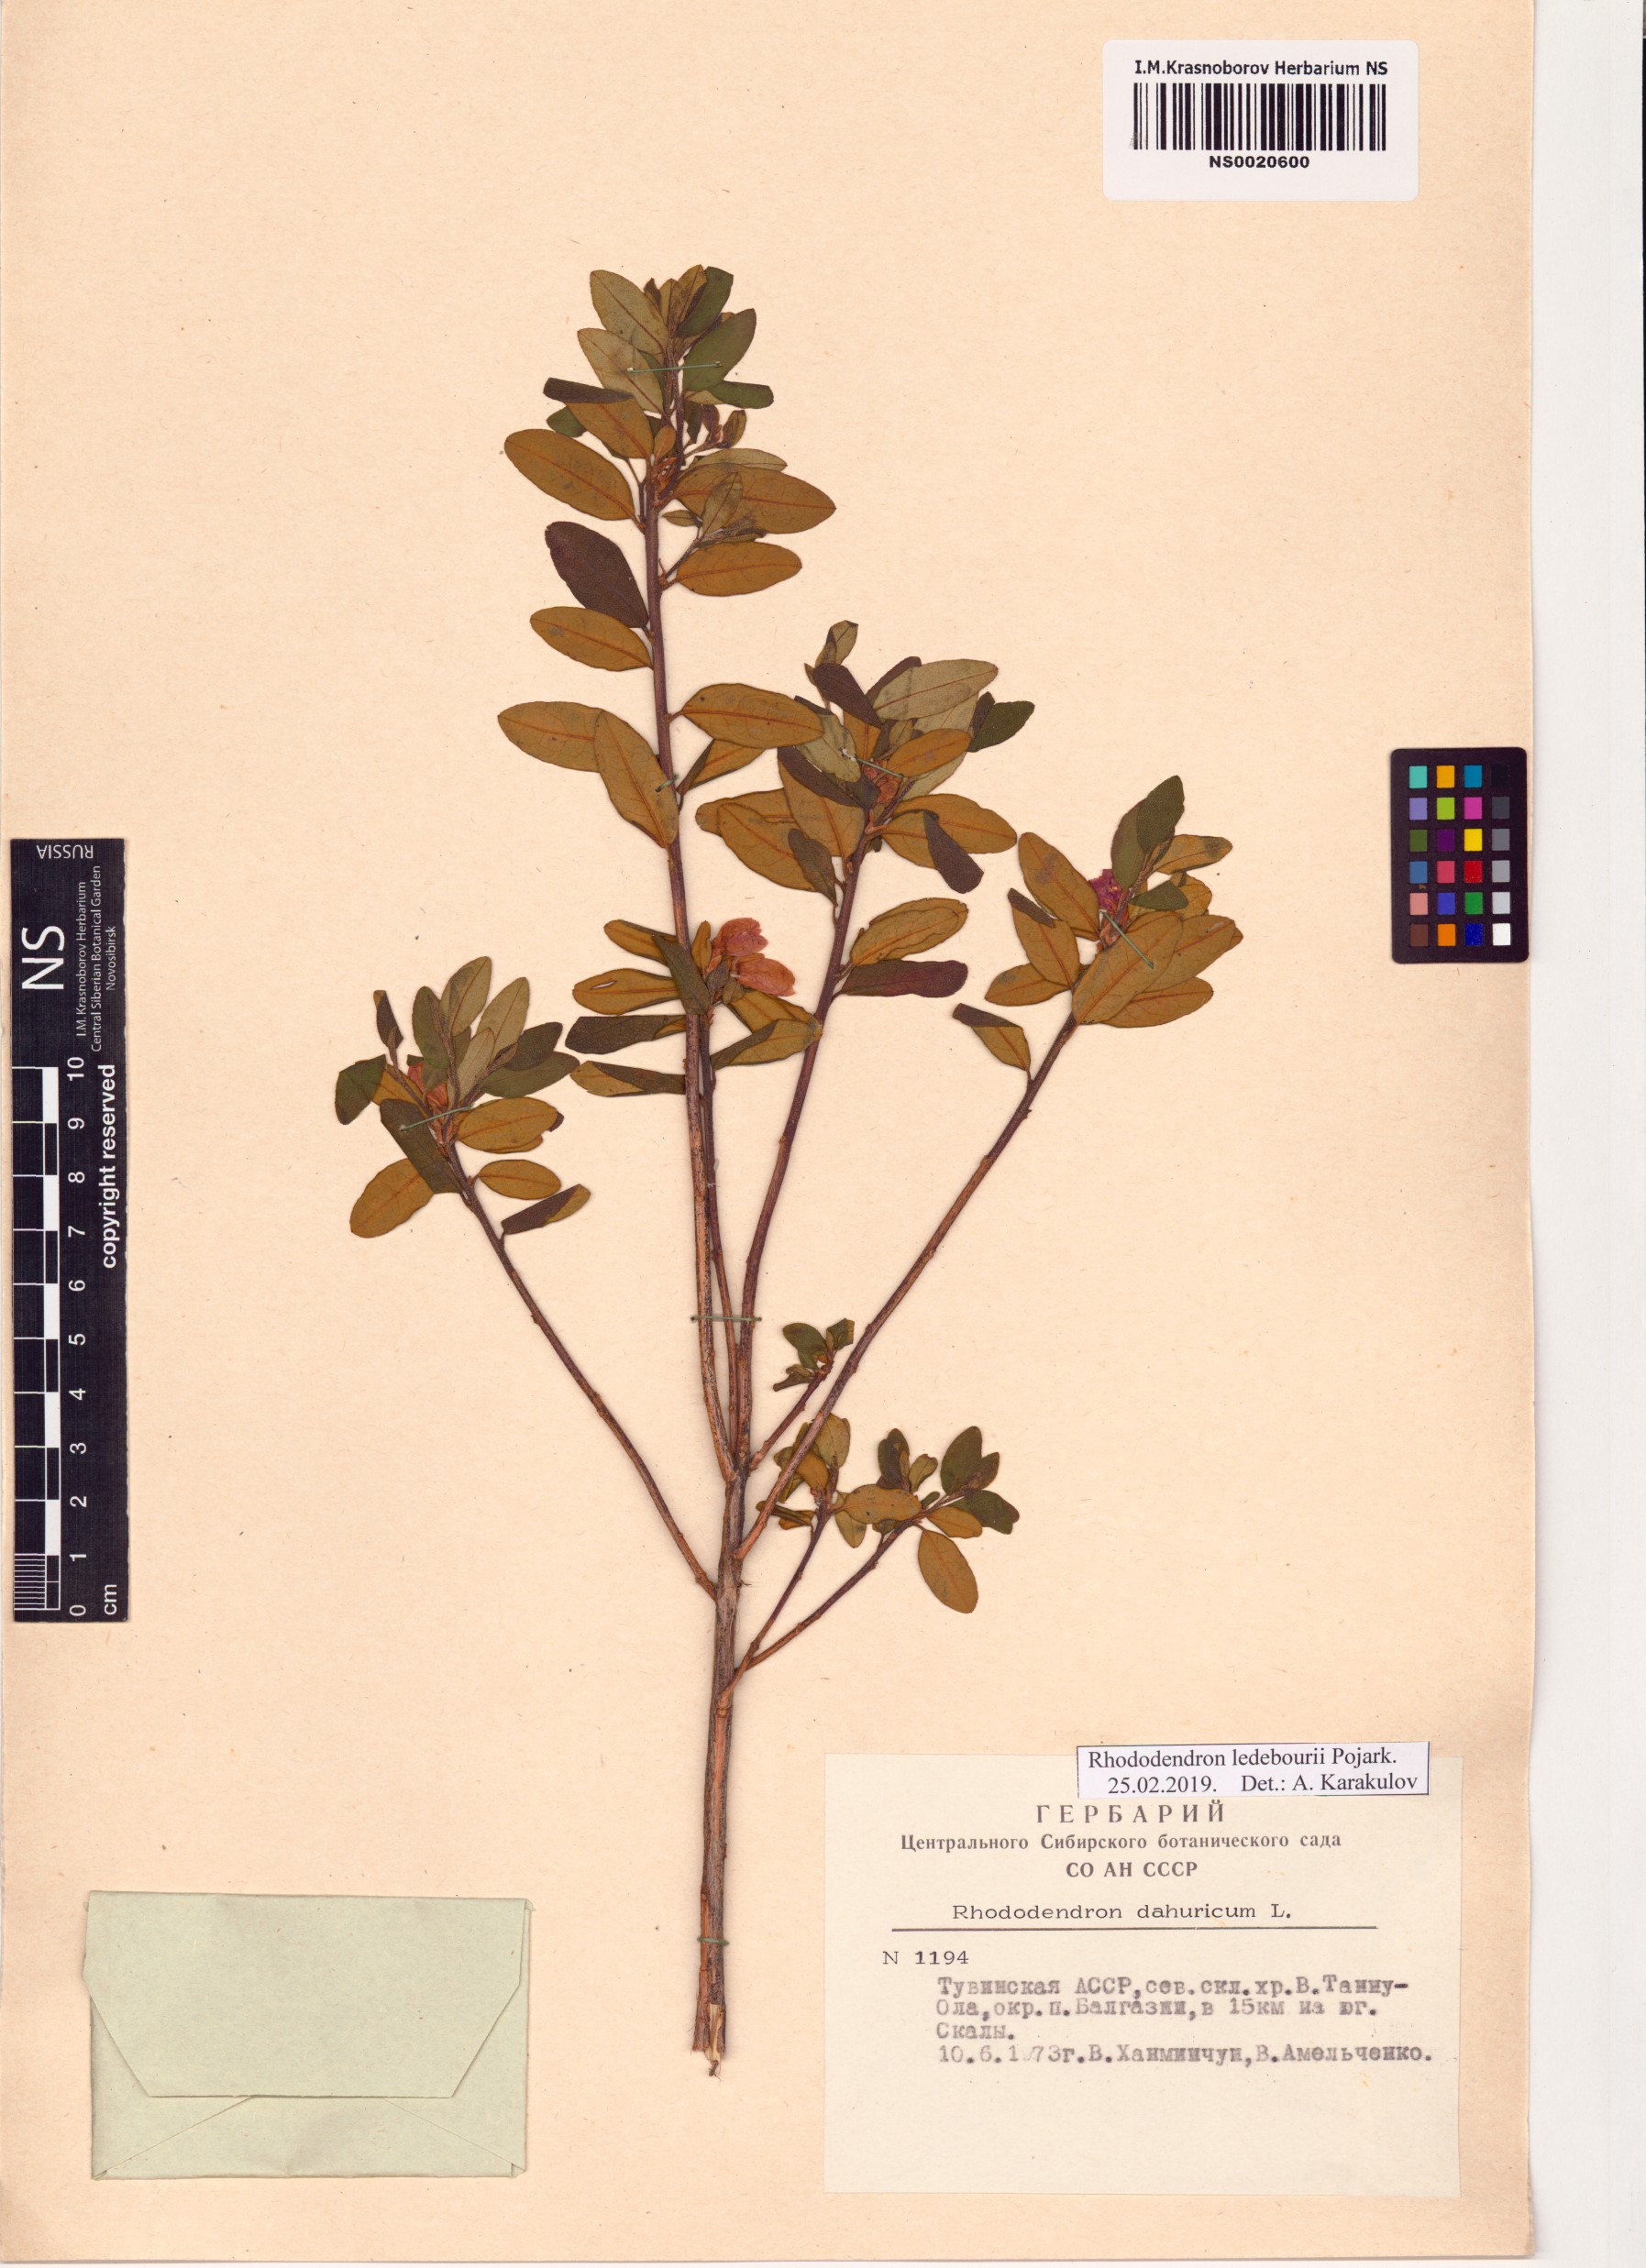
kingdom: Plantae
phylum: Tracheophyta
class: Magnoliopsida
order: Ericales
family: Ericaceae
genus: Rhododendron
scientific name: Rhododendron dauricum
